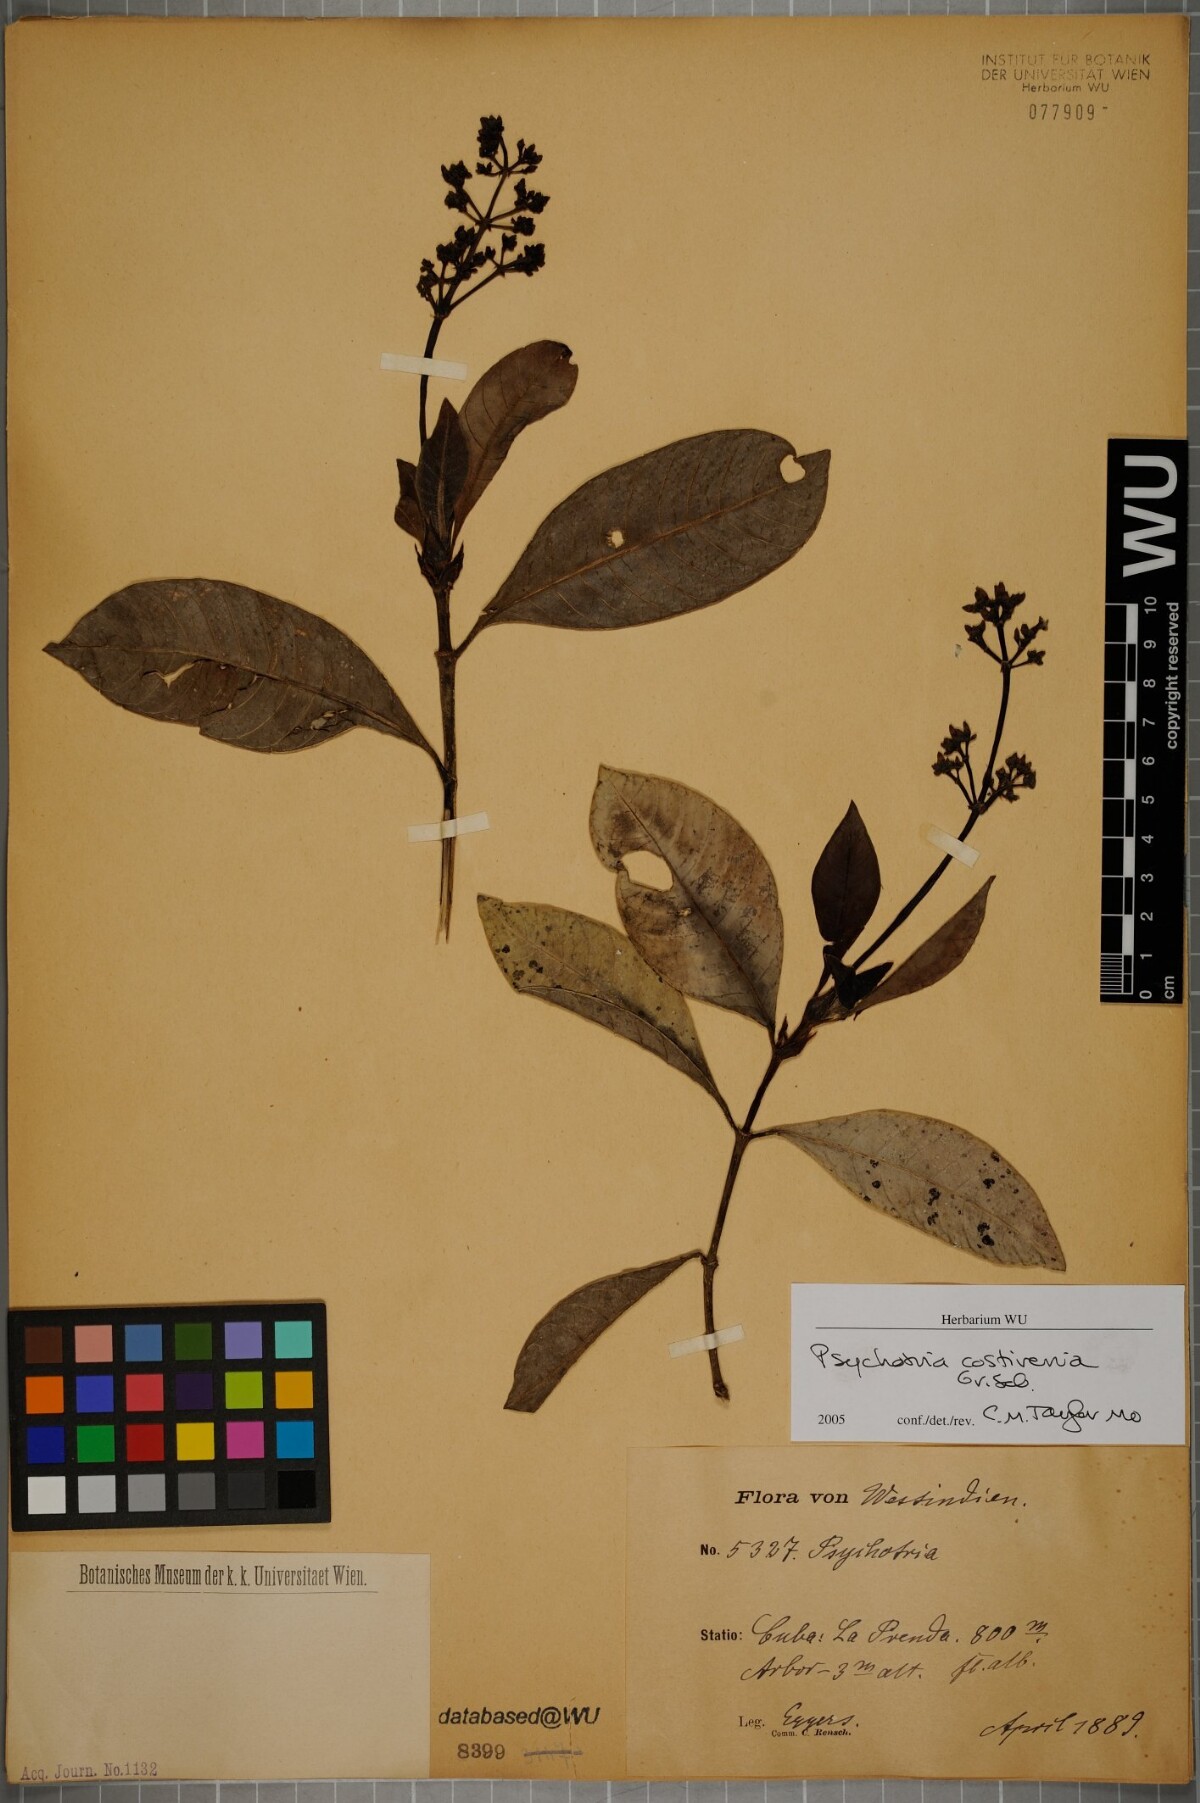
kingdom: Plantae
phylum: Tracheophyta
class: Magnoliopsida
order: Gentianales
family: Rubiaceae
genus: Psychotria
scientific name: Psychotria costivenia
